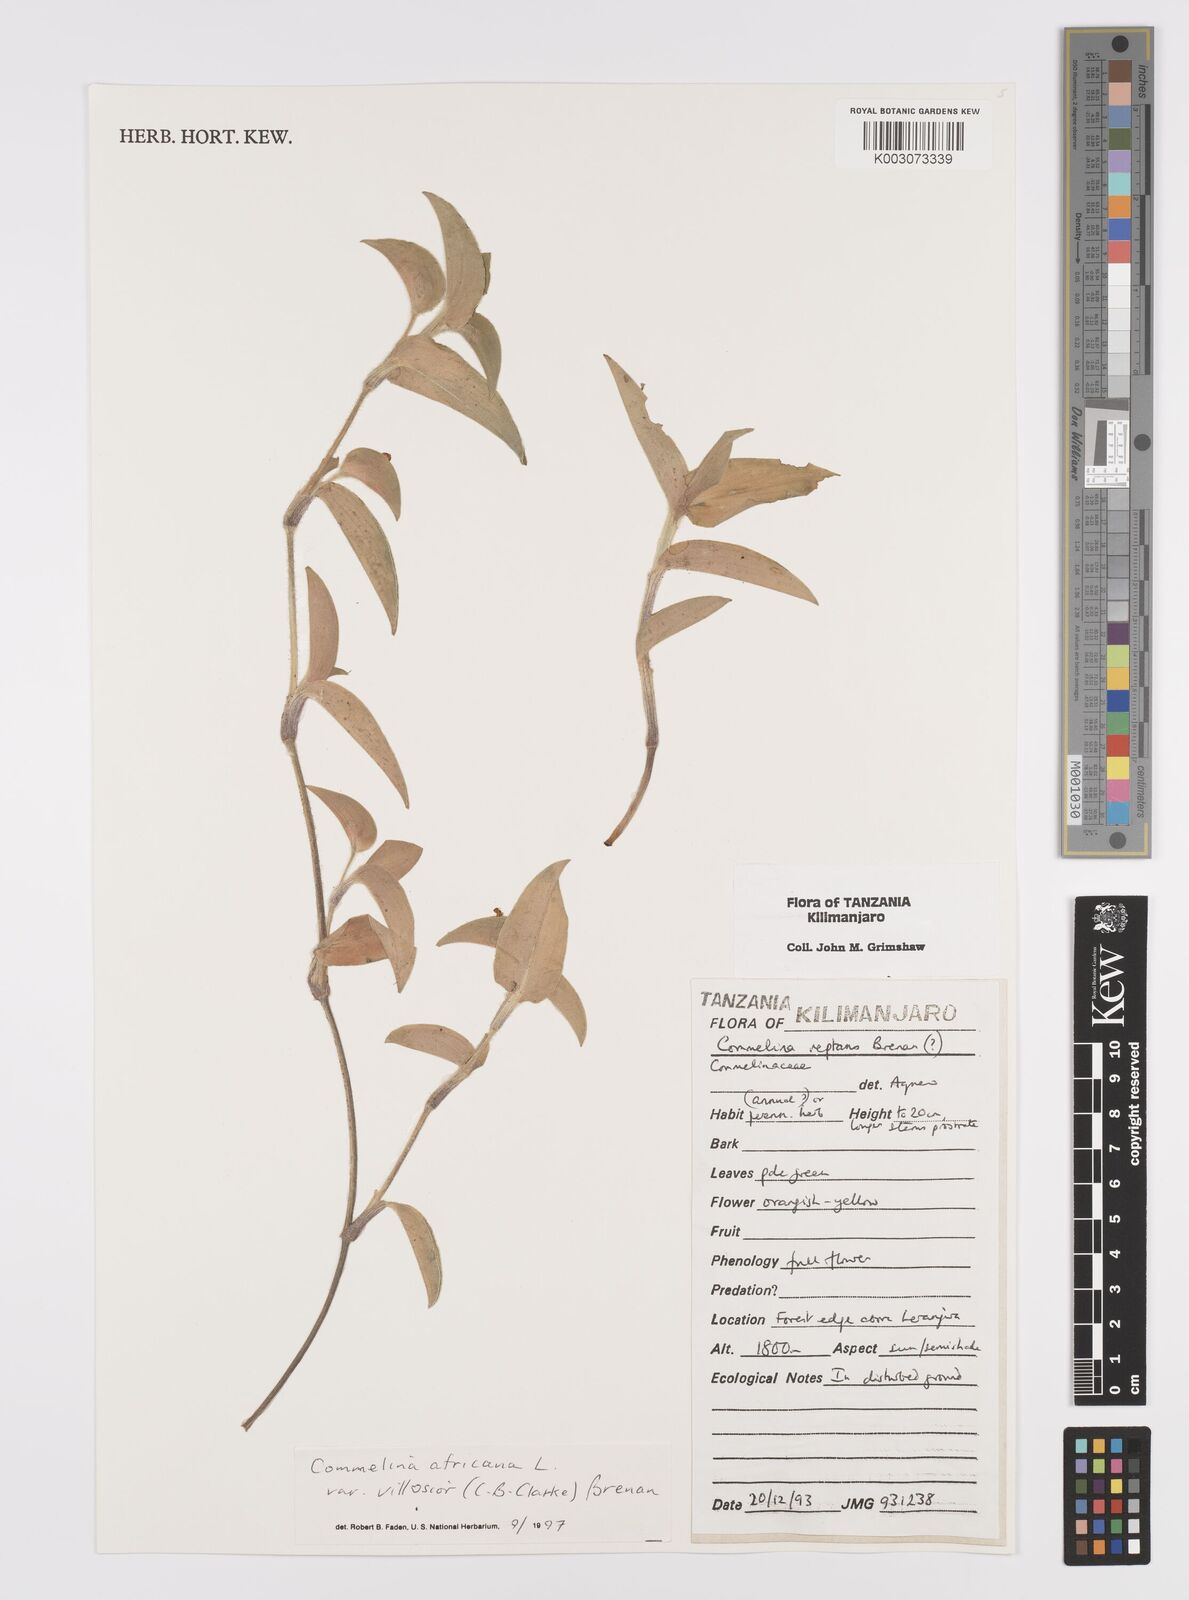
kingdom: Plantae
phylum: Tracheophyta
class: Liliopsida
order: Commelinales
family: Commelinaceae
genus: Commelina
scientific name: Commelina africana
